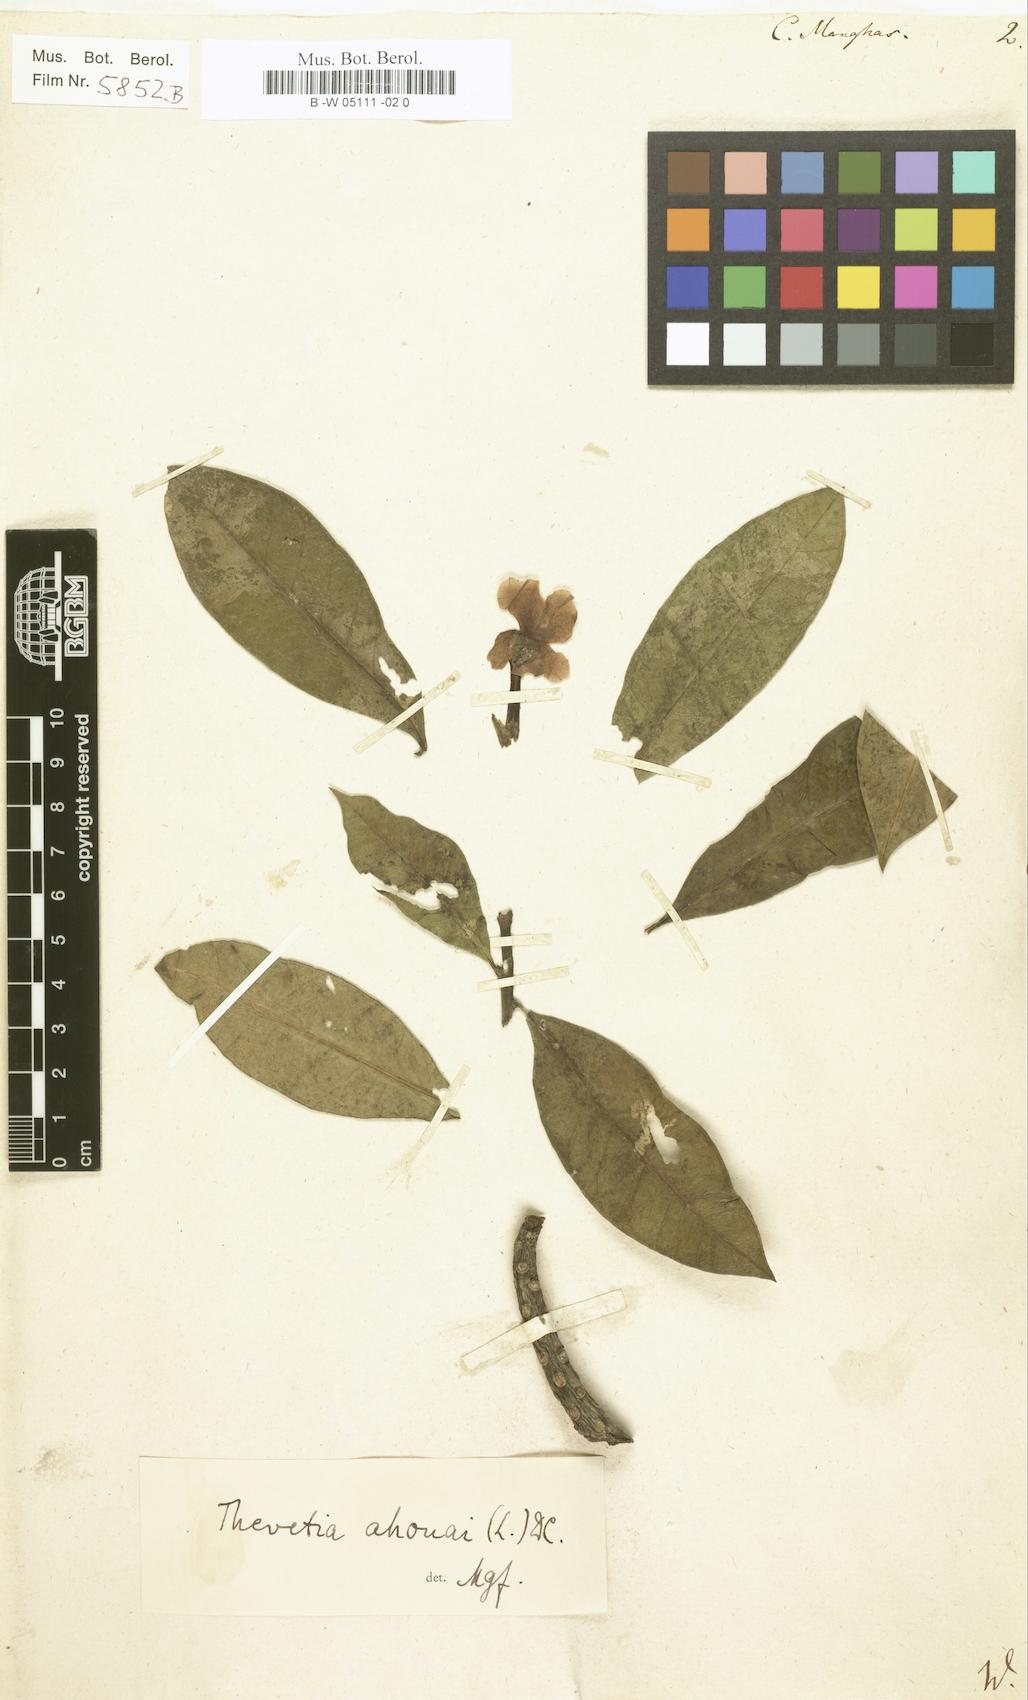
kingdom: Plantae
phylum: Tracheophyta
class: Magnoliopsida
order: Gentianales
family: Apocynaceae
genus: Cerbera
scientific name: Cerbera manghas
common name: Reva
